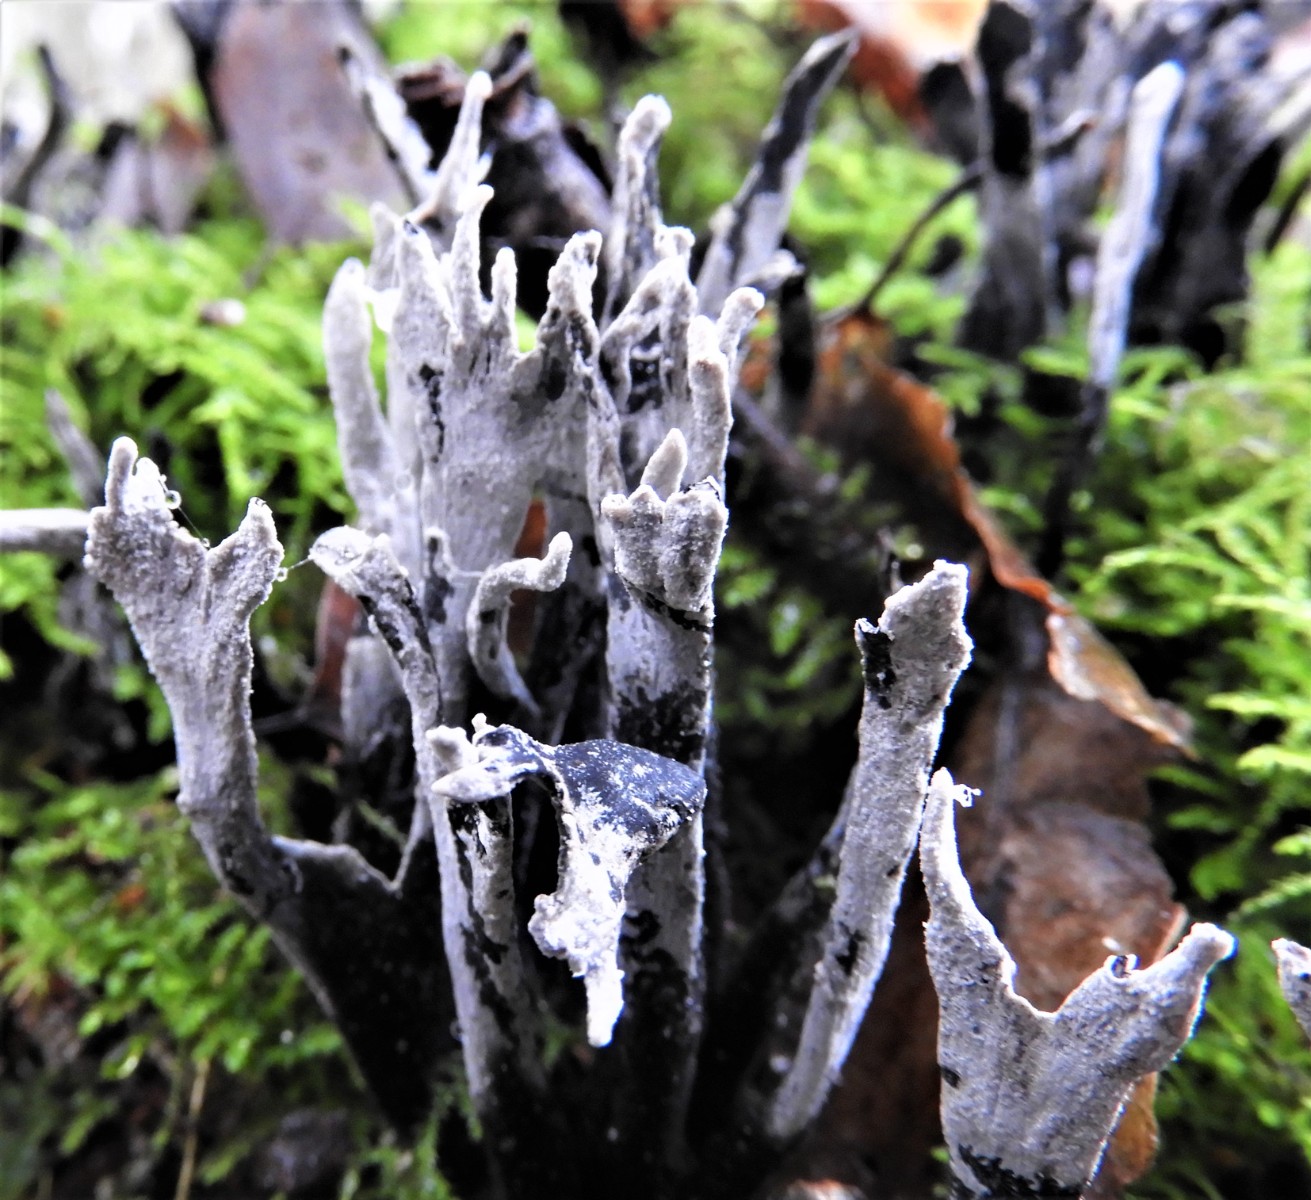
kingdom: Fungi
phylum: Ascomycota
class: Sordariomycetes
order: Xylariales
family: Xylariaceae
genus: Xylaria
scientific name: Xylaria hypoxylon
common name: grenet stødsvamp
